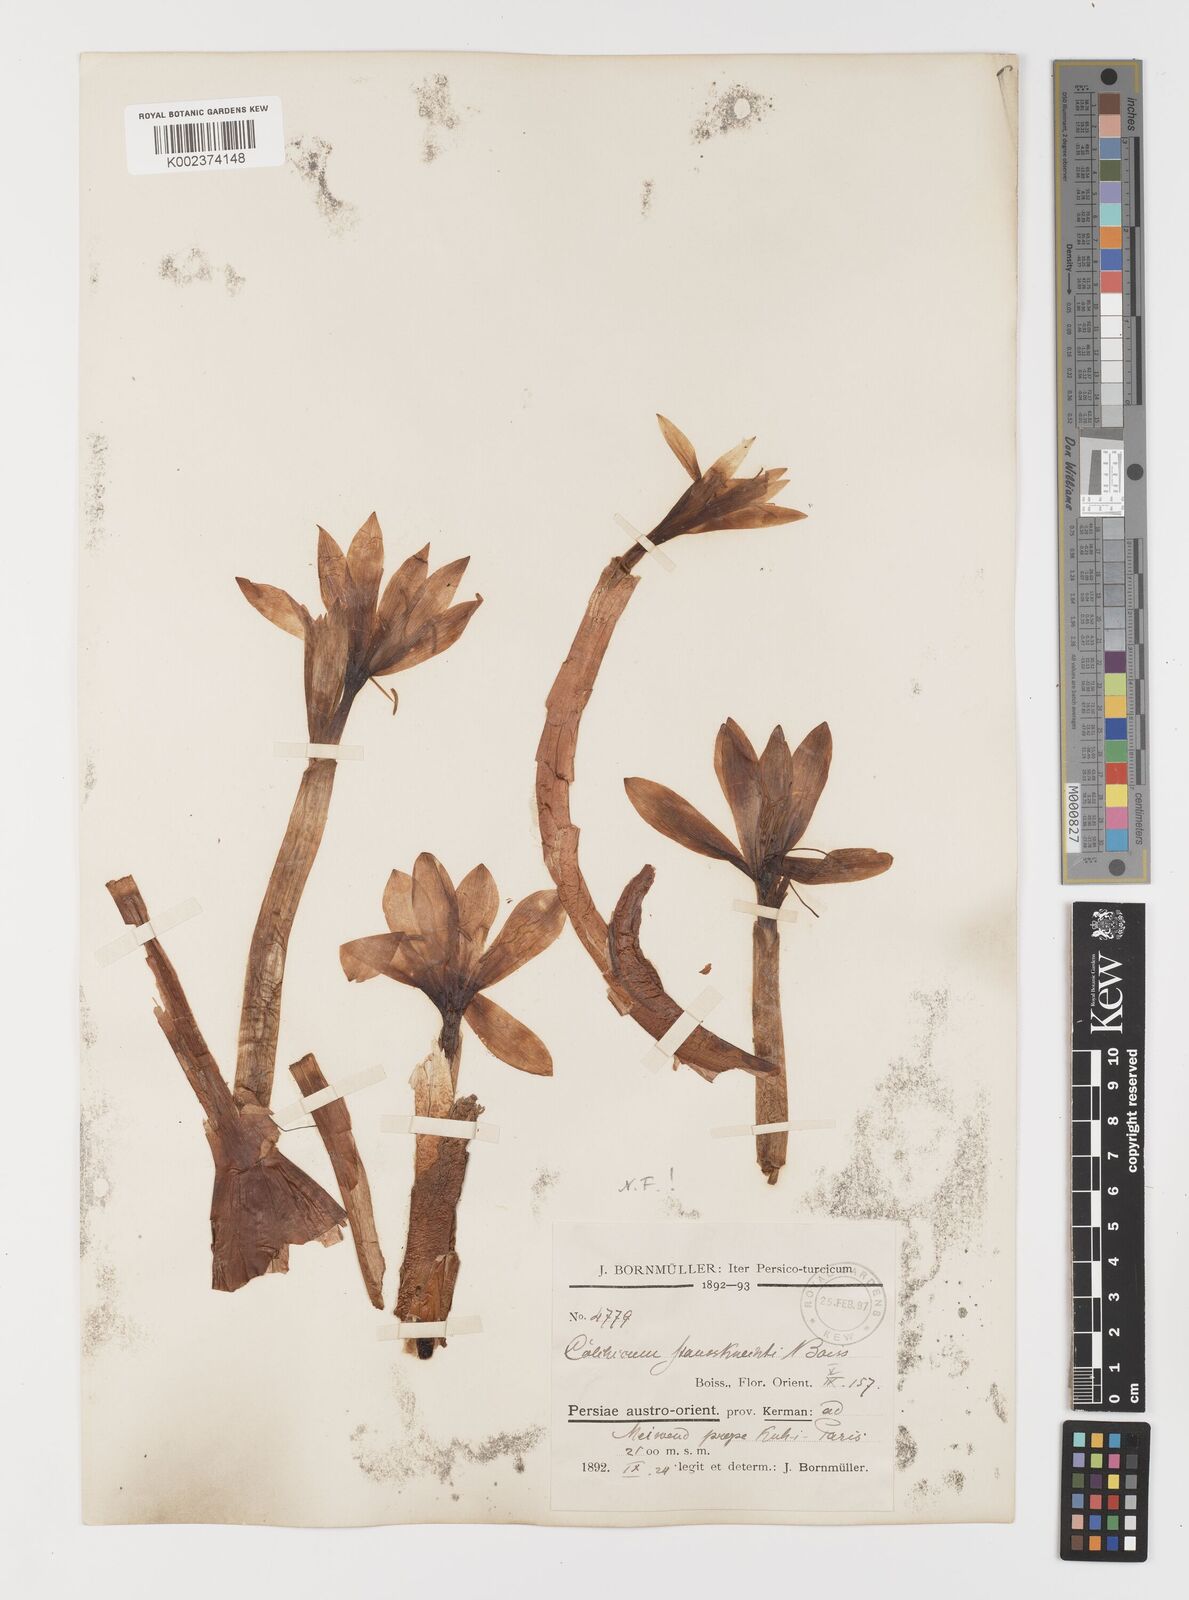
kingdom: Plantae
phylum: Tracheophyta
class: Liliopsida
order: Liliales
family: Colchicaceae
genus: Colchicum
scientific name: Colchicum persicum
